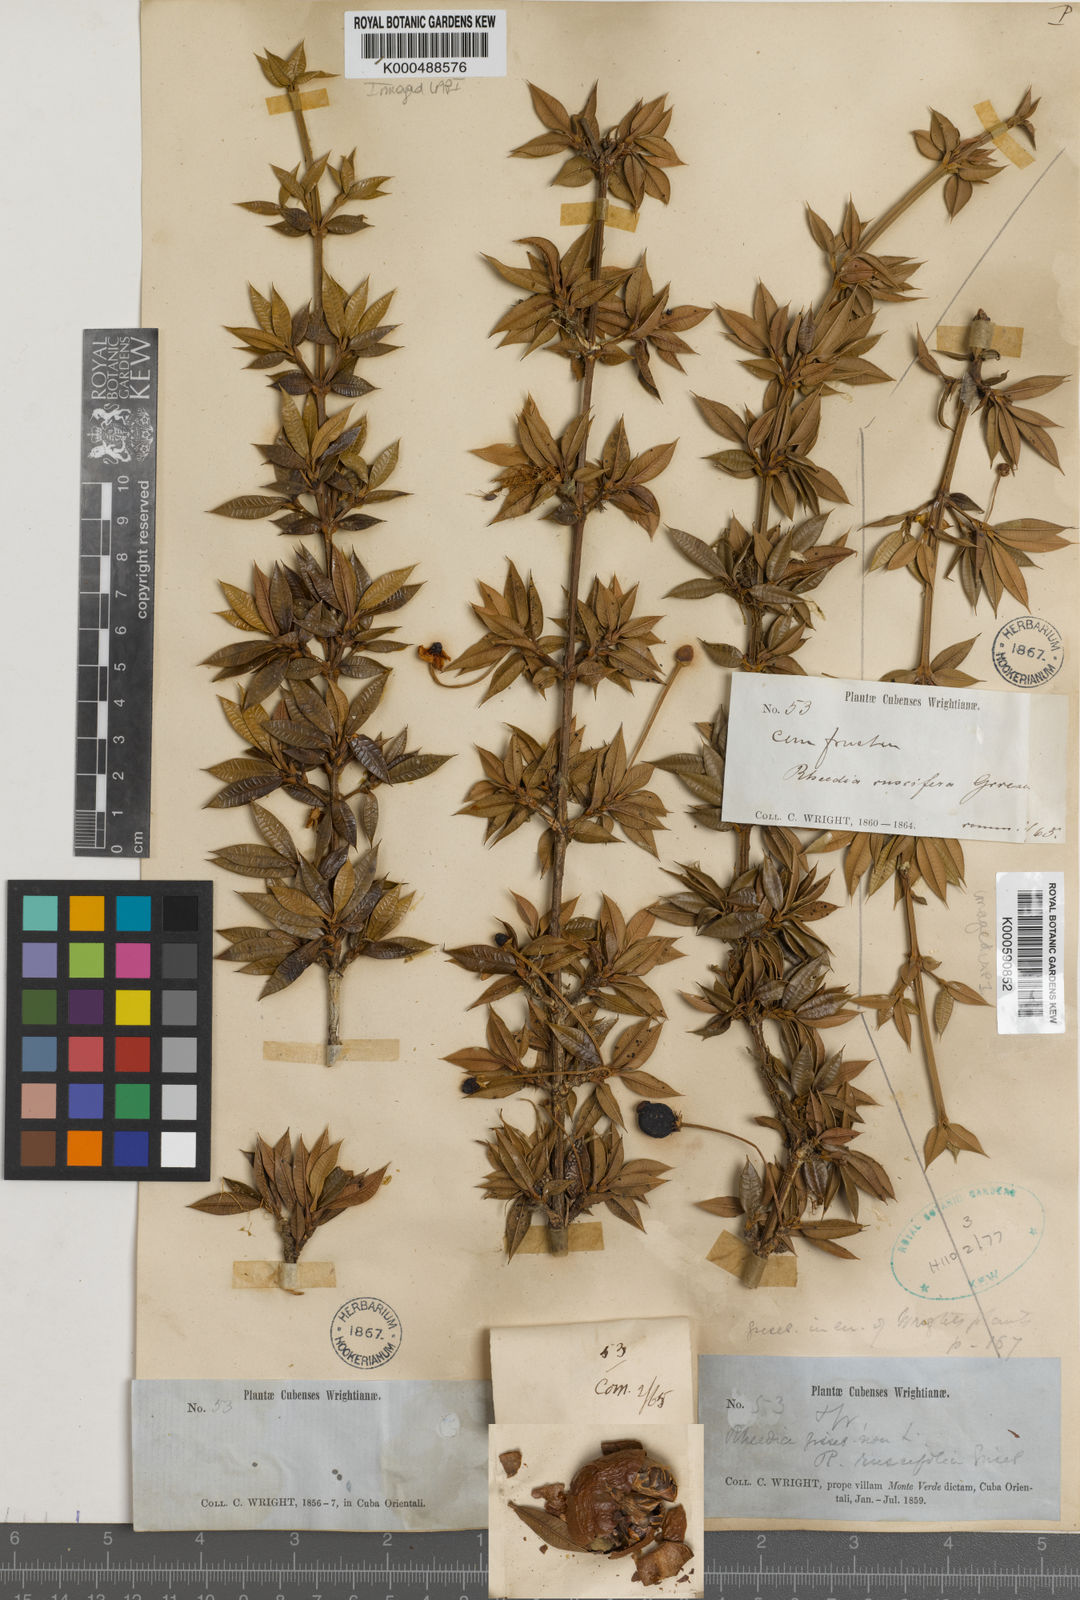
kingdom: Plantae
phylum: Tracheophyta
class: Magnoliopsida
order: Malpighiales
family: Clusiaceae
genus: Garcinia
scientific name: Garcinia
